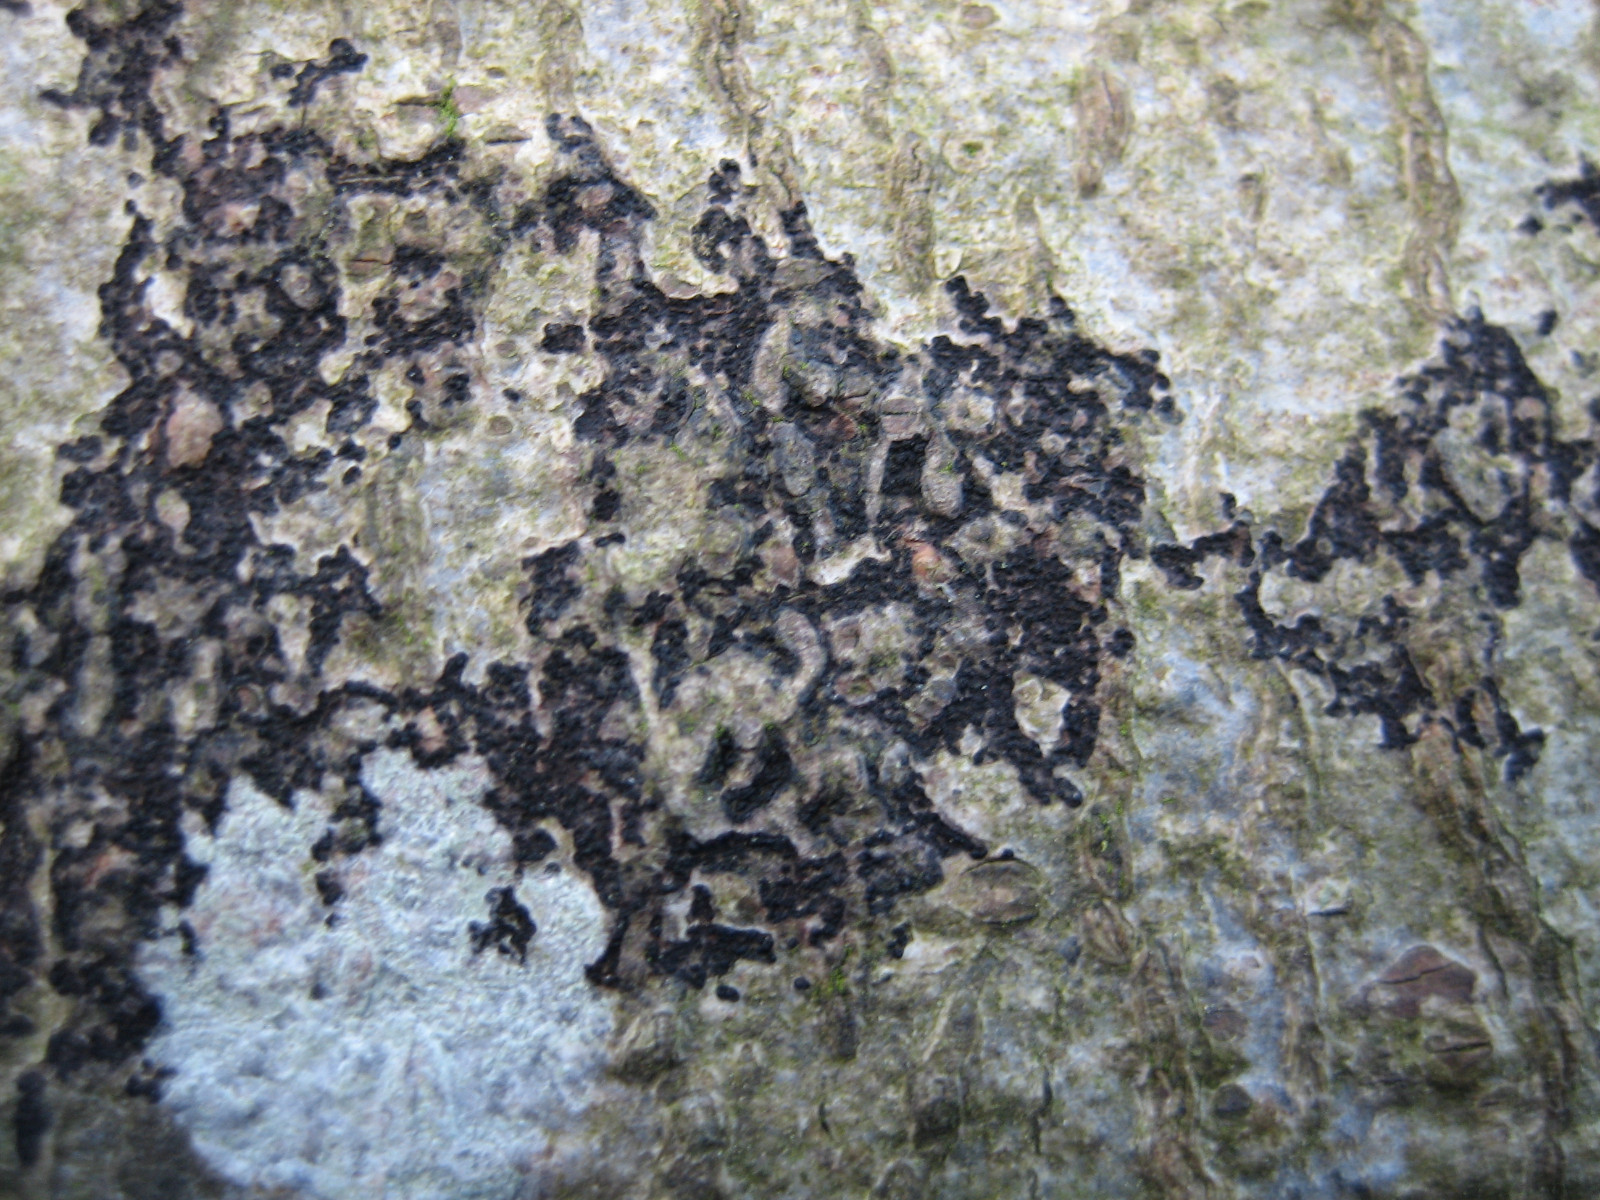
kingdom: Fungi
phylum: Ascomycota
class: Leotiomycetes
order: Rhytismatales
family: Ascodichaenaceae
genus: Ascodichaena
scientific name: Ascodichaena rugosa
